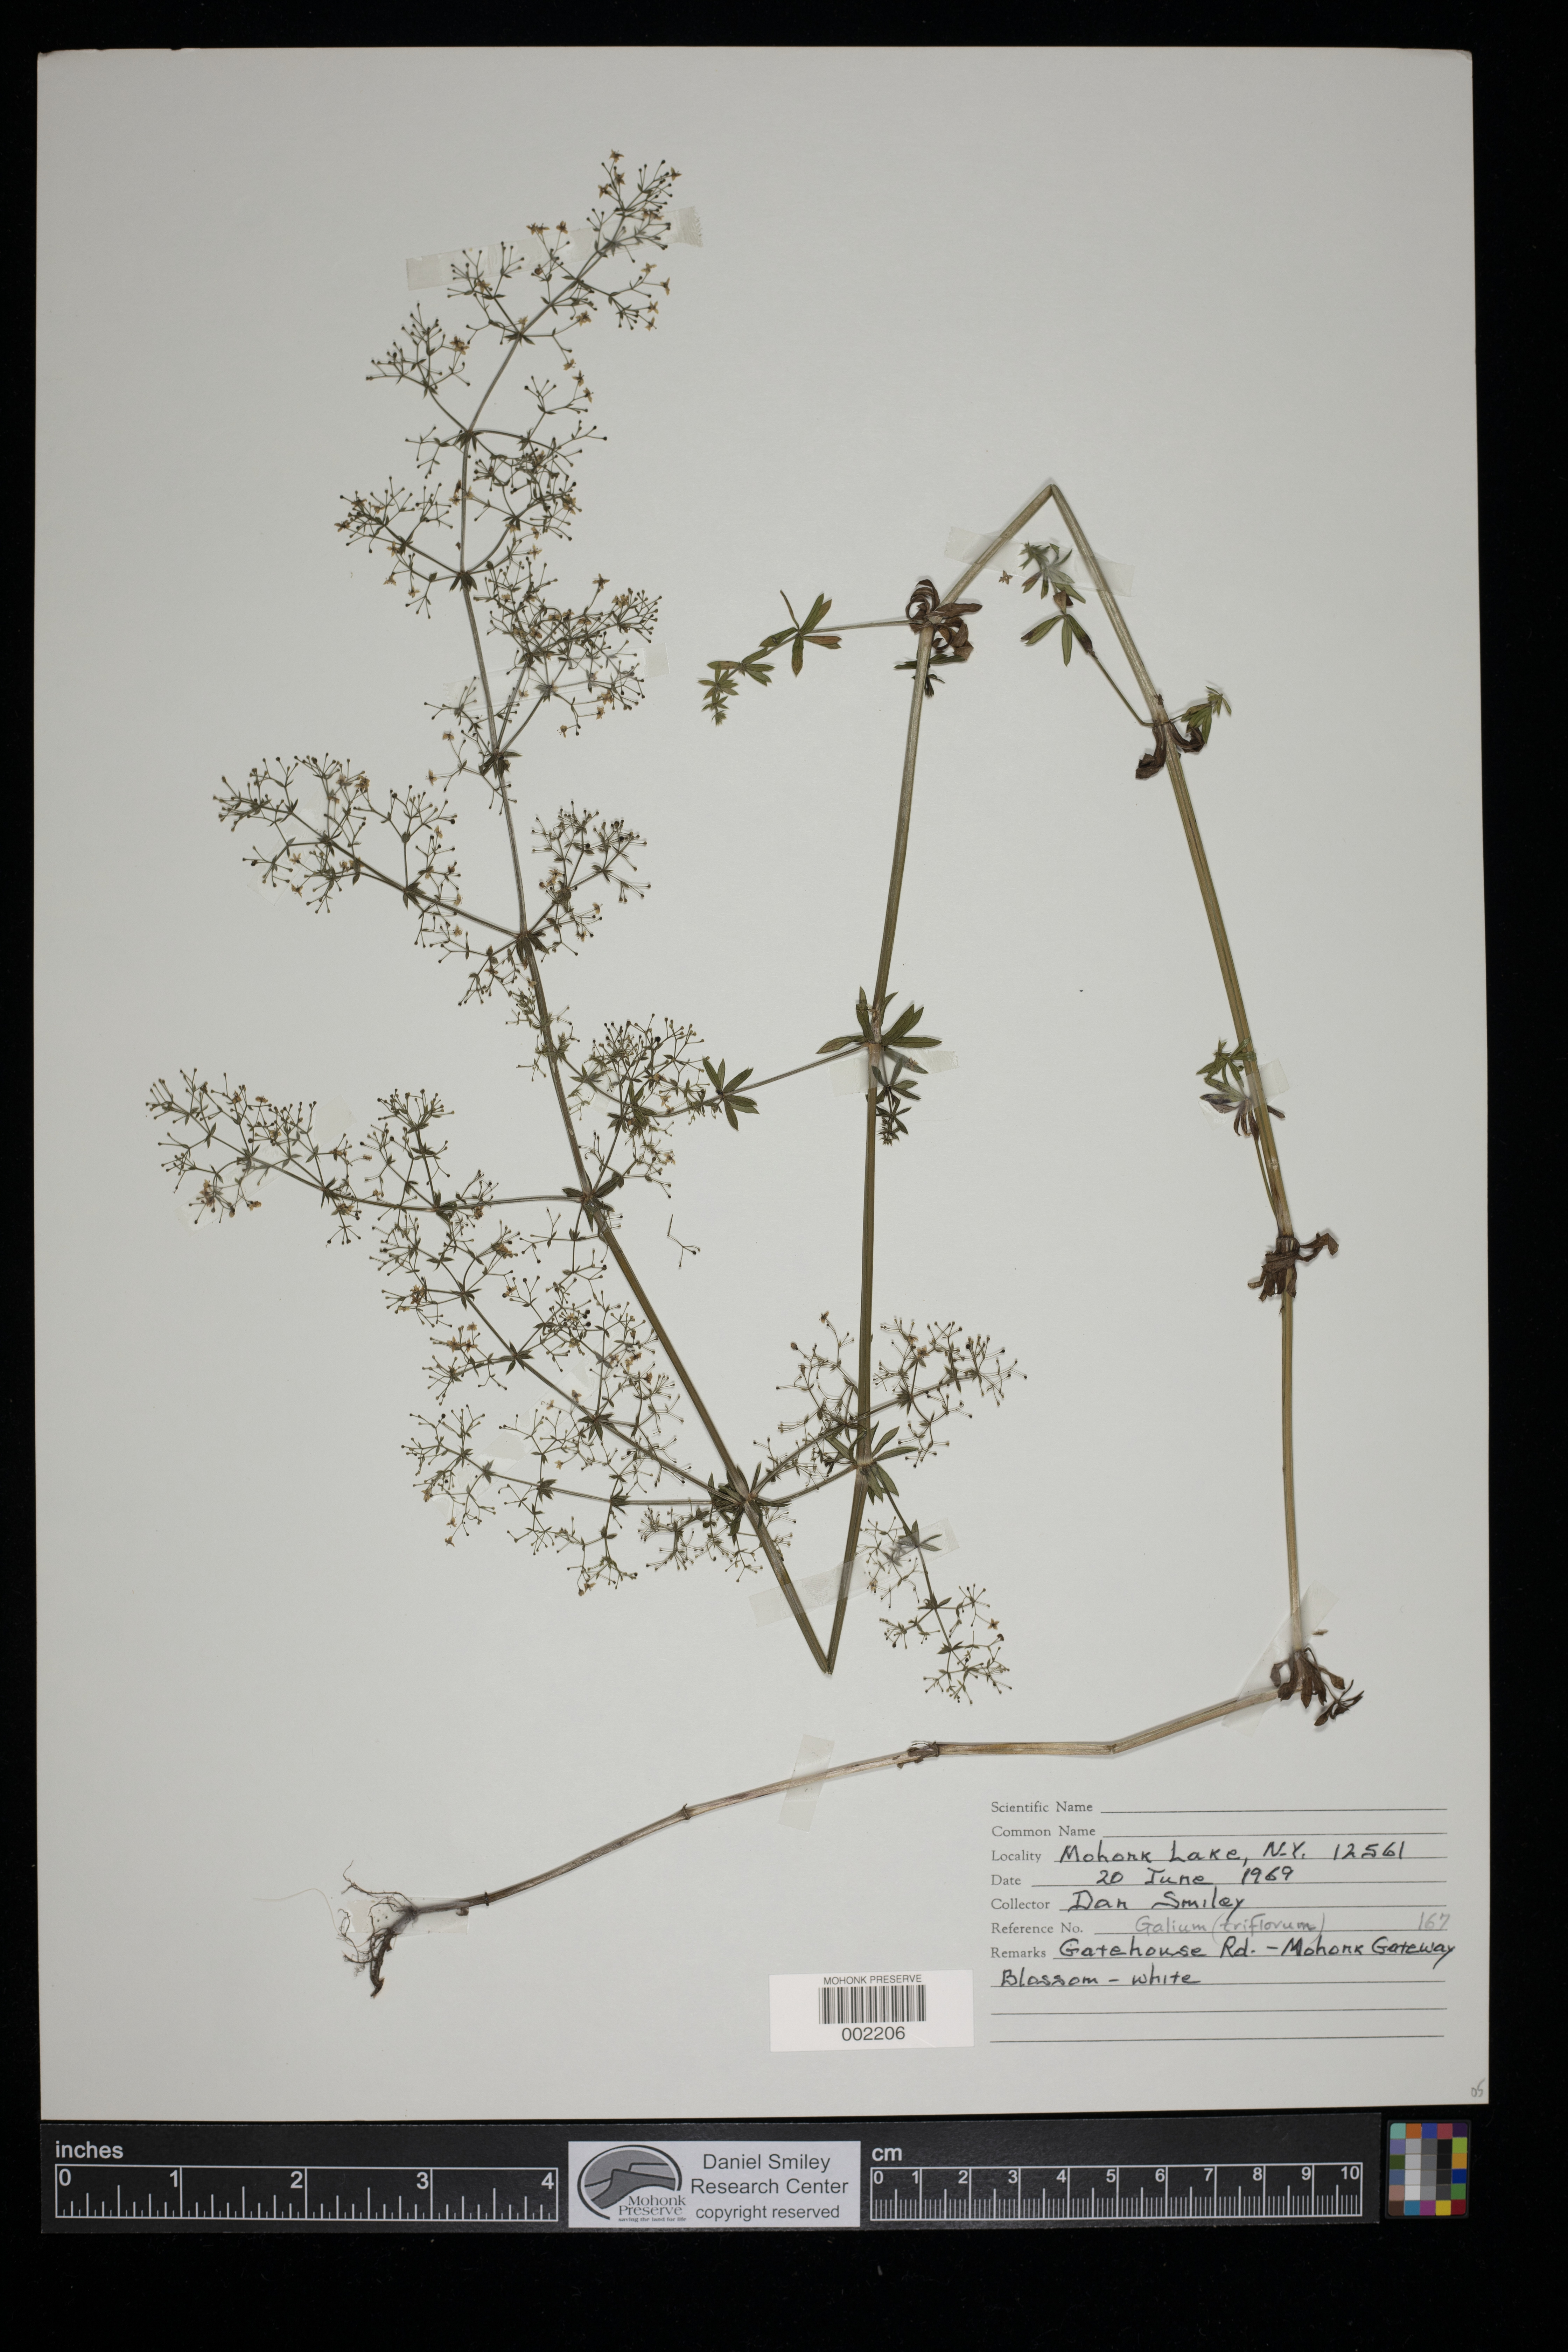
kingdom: Plantae
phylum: Tracheophyta
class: Magnoliopsida
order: Gentianales
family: Rubiaceae
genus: Galium
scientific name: Galium triflorum
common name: Fragrant bedstraw
